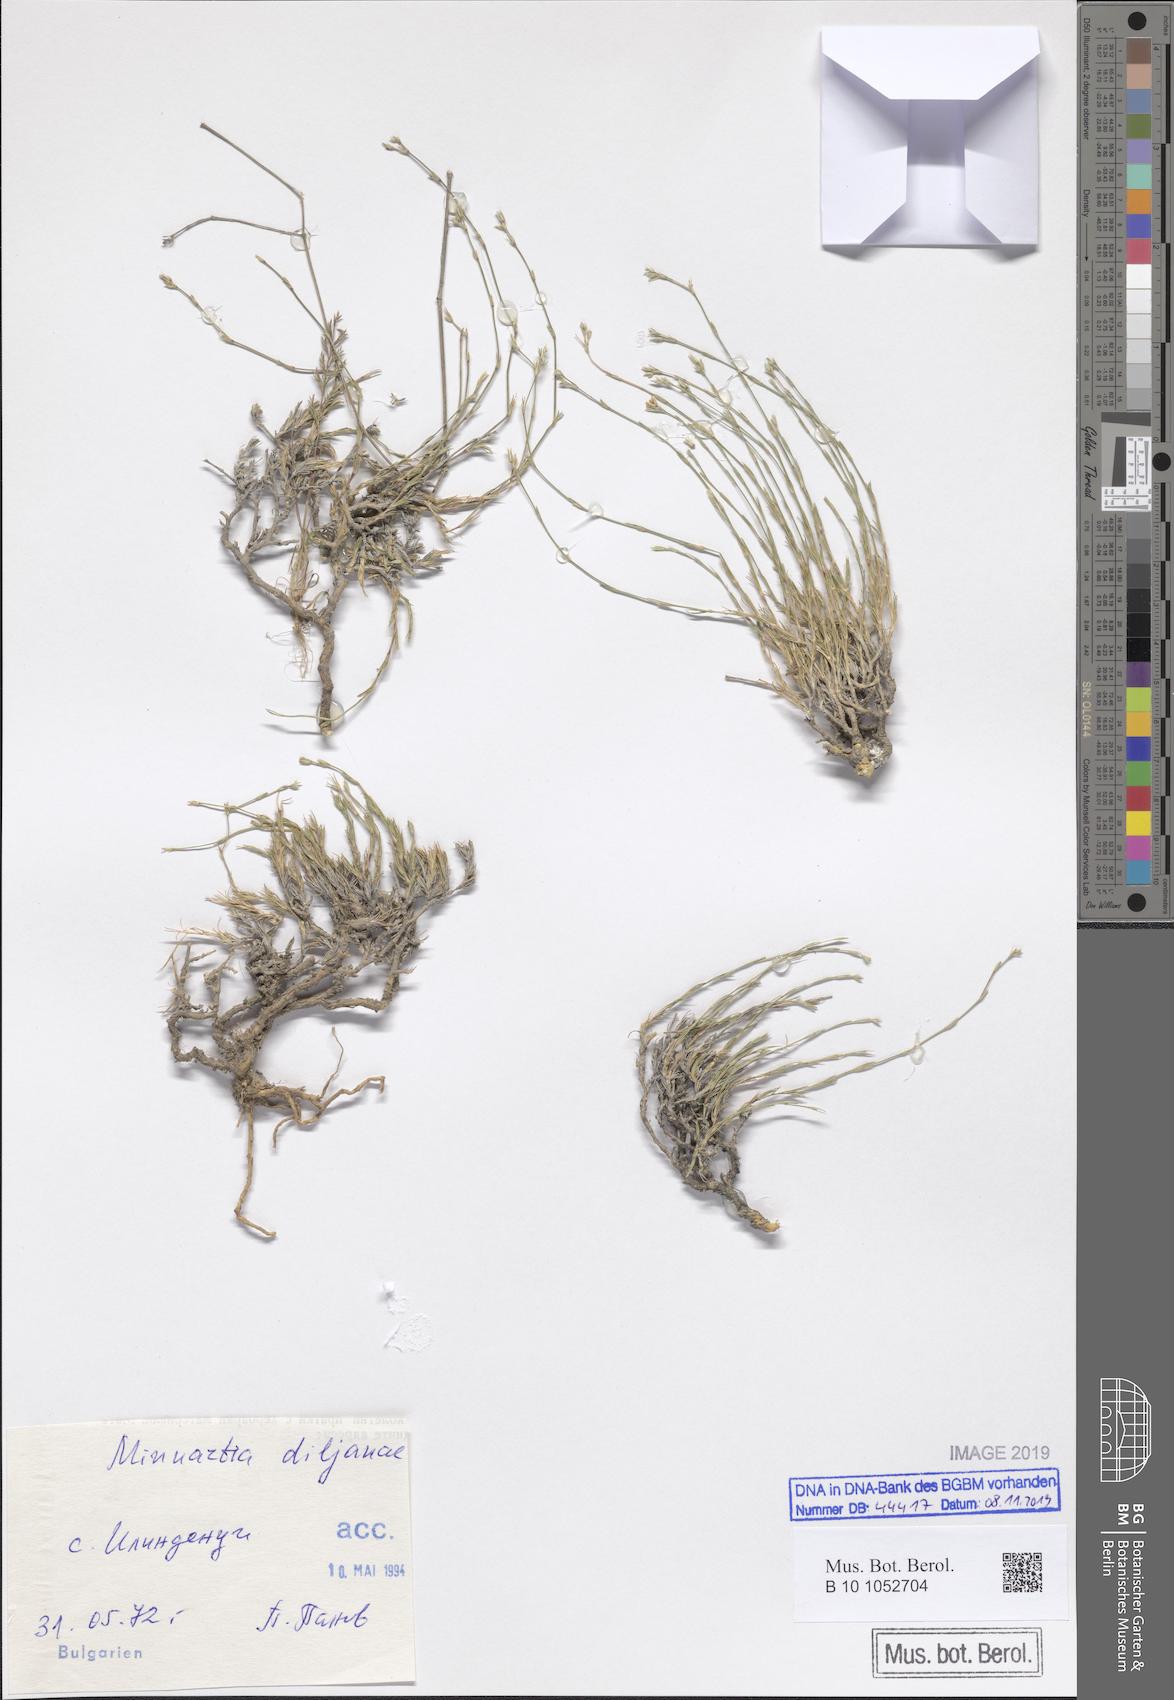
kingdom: Plantae
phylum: Tracheophyta
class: Magnoliopsida
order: Caryophyllales
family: Caryophyllaceae
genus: Minuartia
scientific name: Minuartia rumelica
